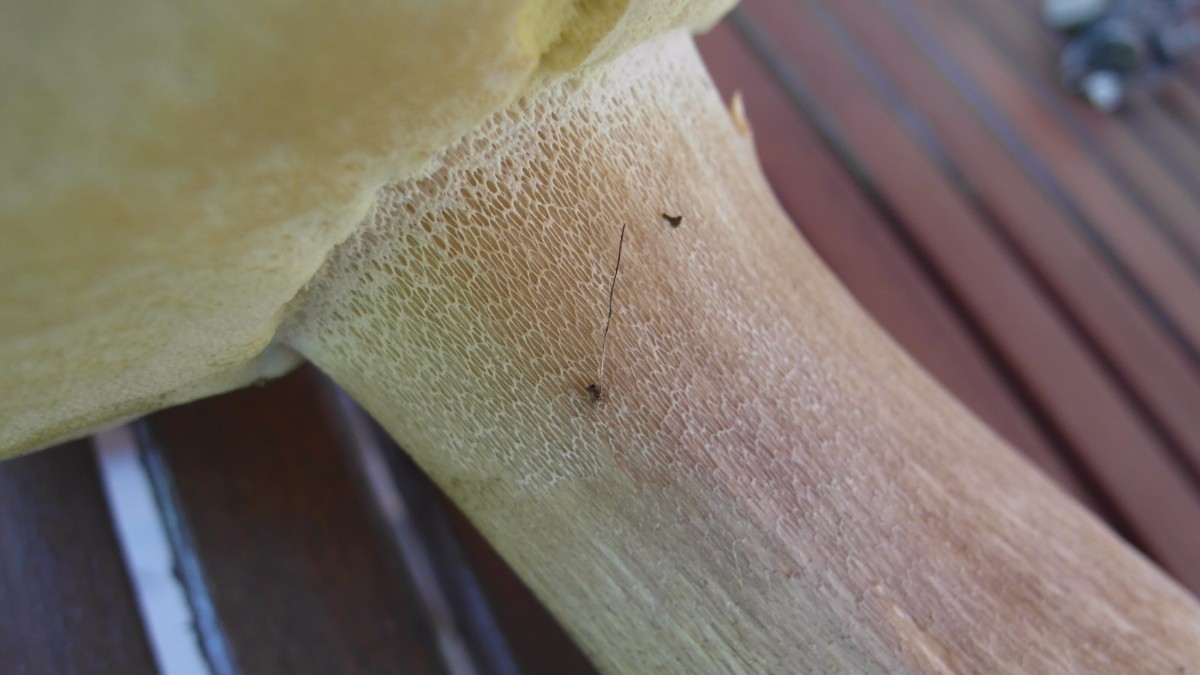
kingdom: Fungi
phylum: Basidiomycota
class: Agaricomycetes
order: Boletales
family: Boletaceae
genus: Boletus
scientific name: Boletus reticulatus
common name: sommer-rørhat
